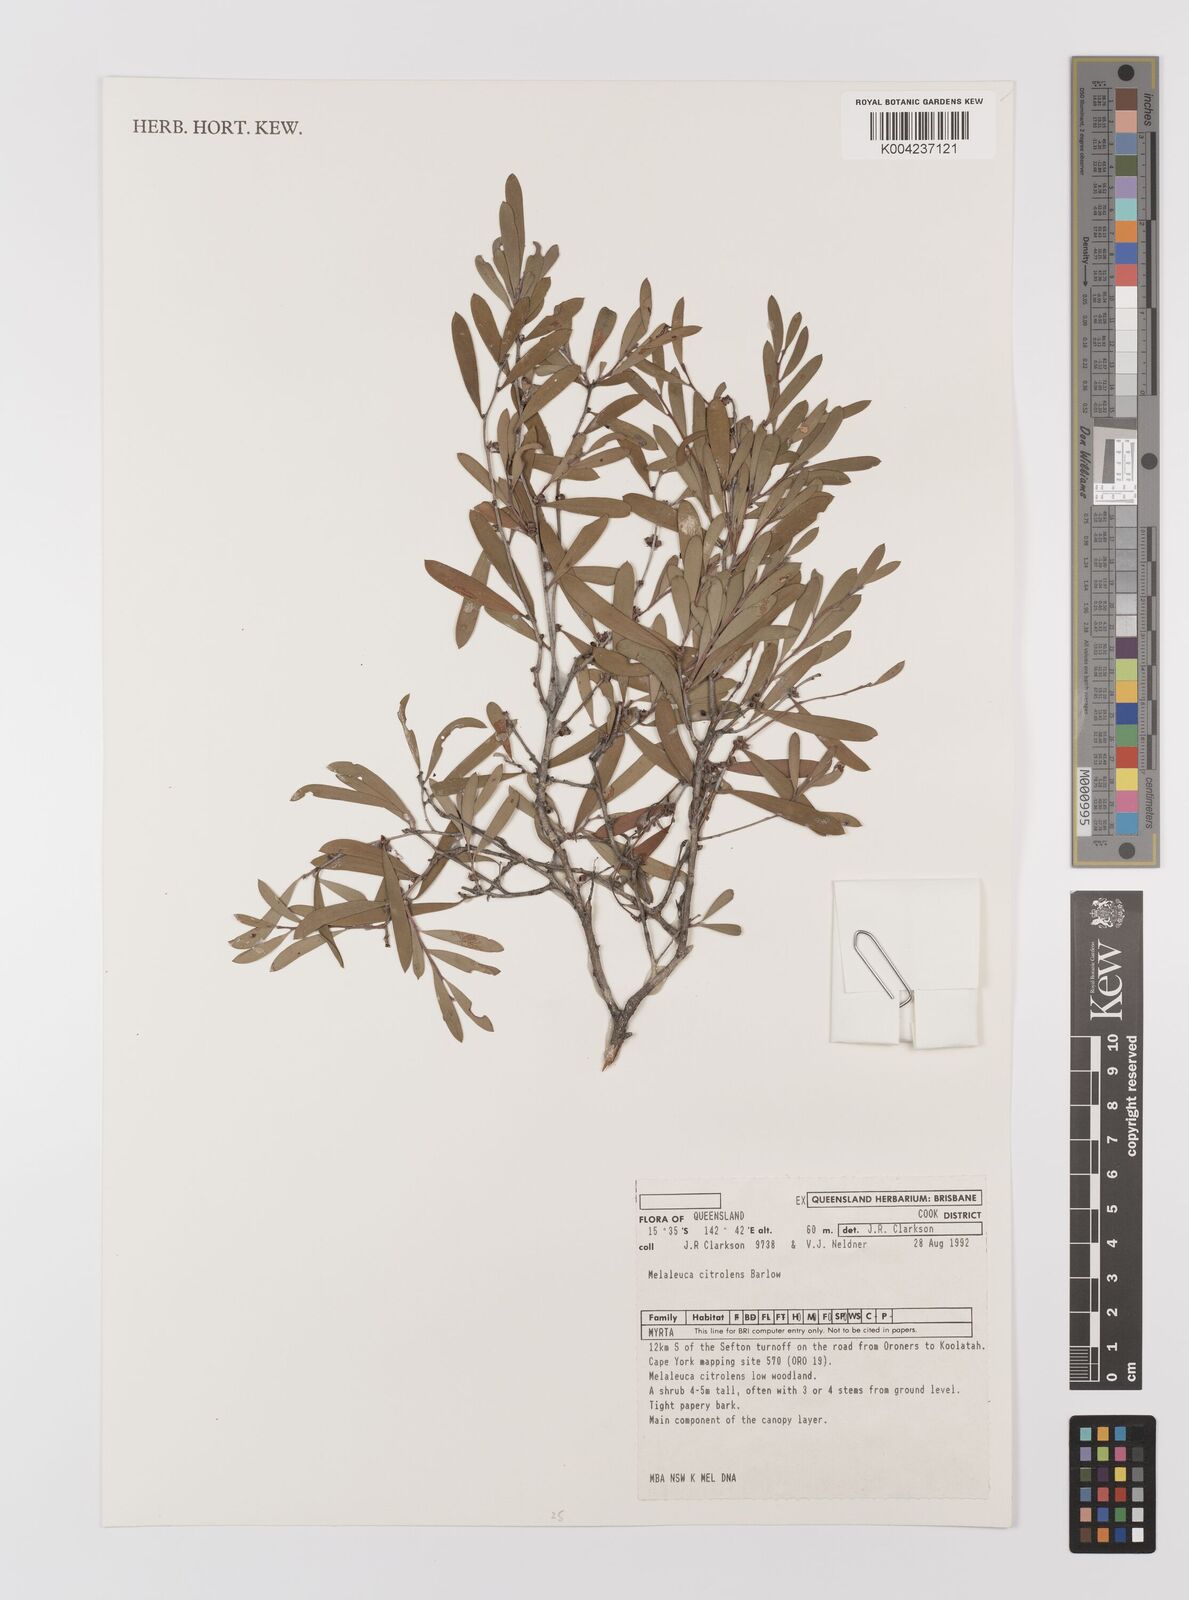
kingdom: Plantae
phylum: Tracheophyta
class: Magnoliopsida
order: Myrtales
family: Myrtaceae
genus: Melaleuca
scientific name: Melaleuca citrolens
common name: Lemon-scented paperbark
